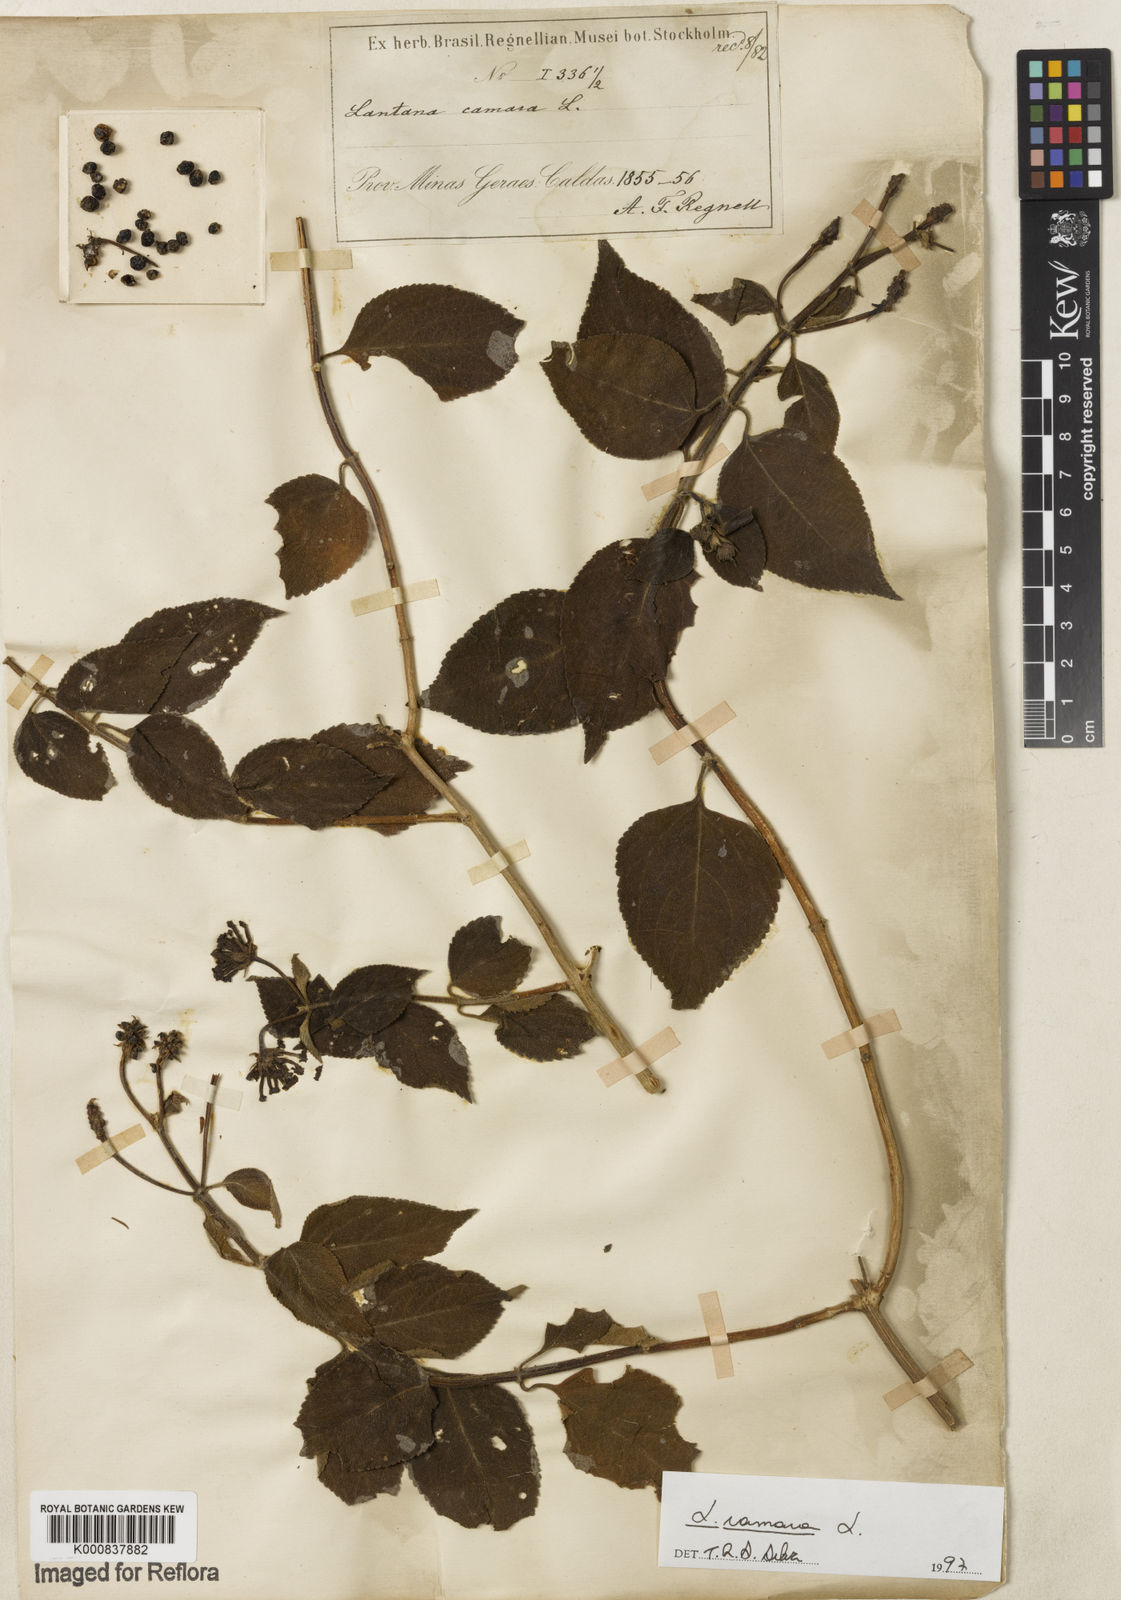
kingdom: Plantae
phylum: Tracheophyta
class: Magnoliopsida
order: Lamiales
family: Verbenaceae
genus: Lantana
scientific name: Lantana camara
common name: Lantana
